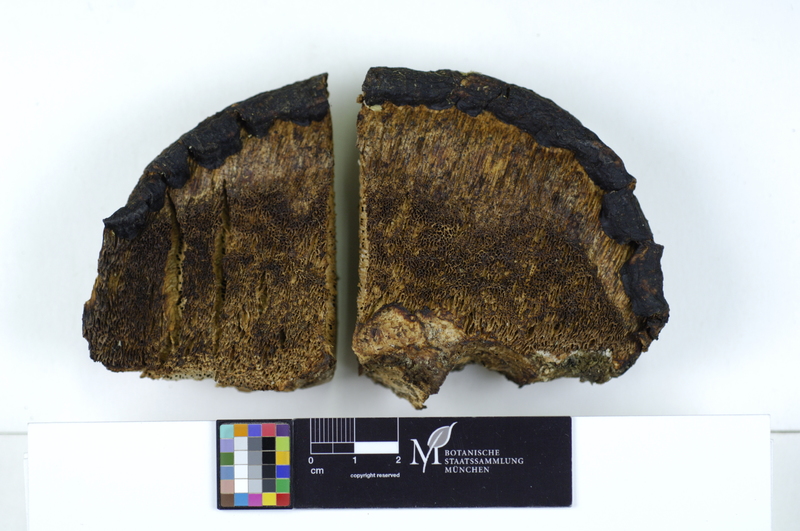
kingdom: Plantae
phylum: Tracheophyta
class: Magnoliopsida
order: Malpighiales
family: Salicaceae
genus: Salix
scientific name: Salix
